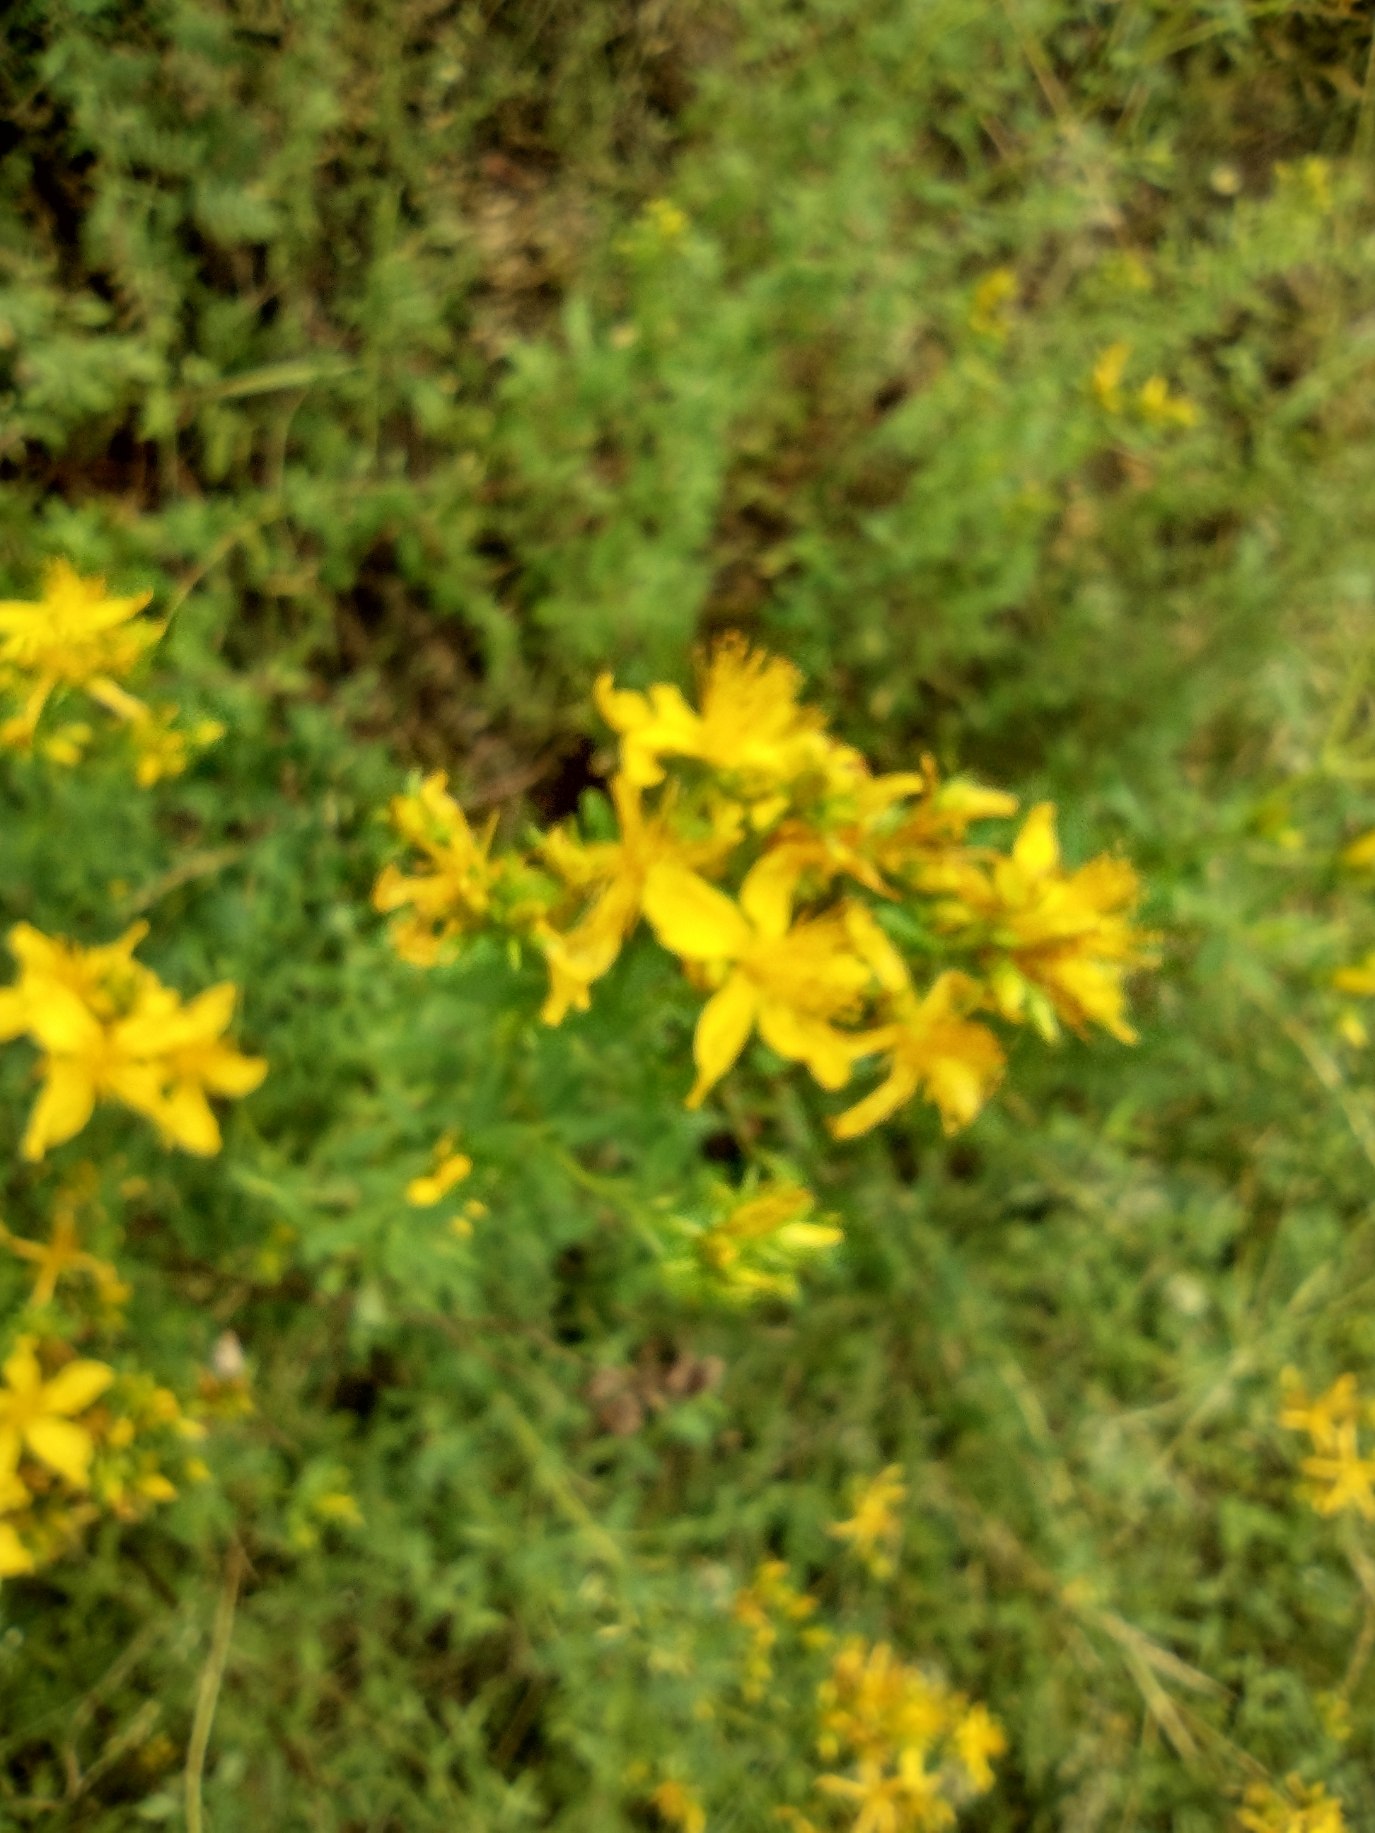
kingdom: Plantae
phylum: Tracheophyta
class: Magnoliopsida
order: Malpighiales
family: Hypericaceae
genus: Hypericum
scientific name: Hypericum perforatum
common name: Prikbladet perikon
